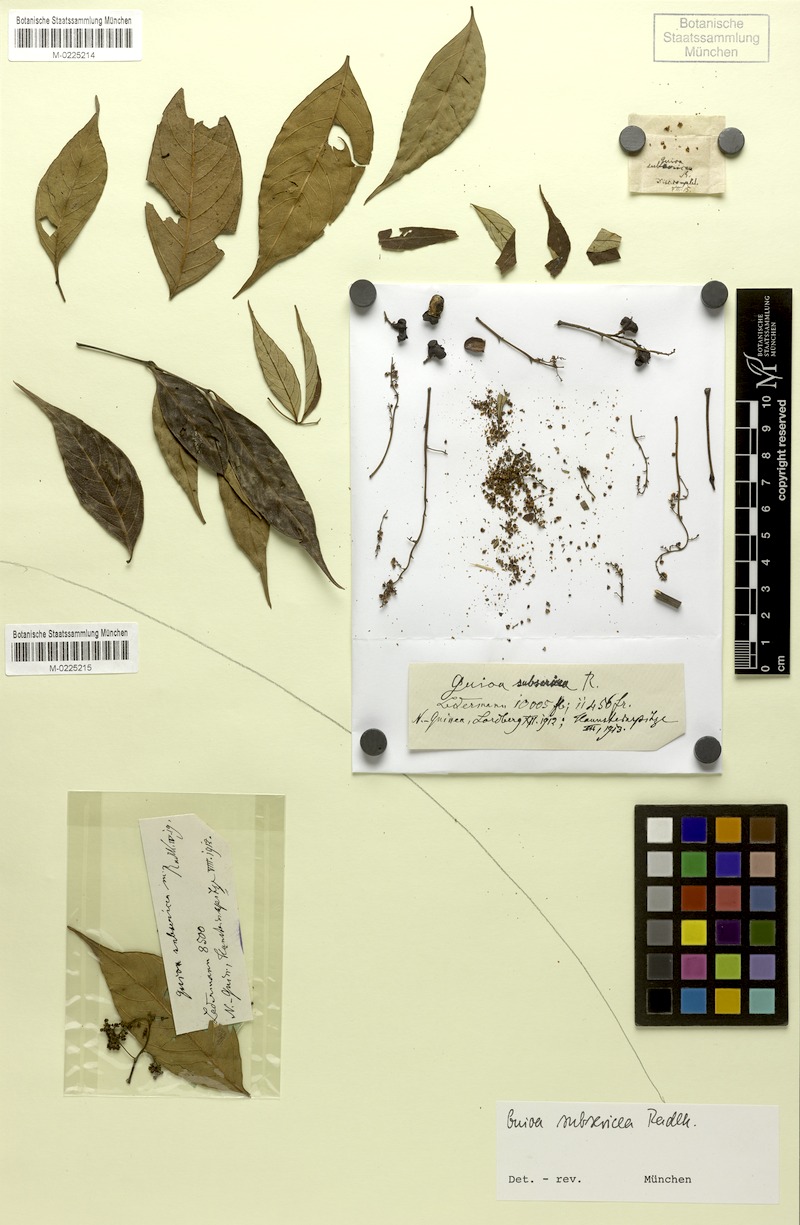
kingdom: Plantae
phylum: Tracheophyta
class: Magnoliopsida
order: Sapindales
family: Sapindaceae
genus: Guioa
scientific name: Guioa subsericea
